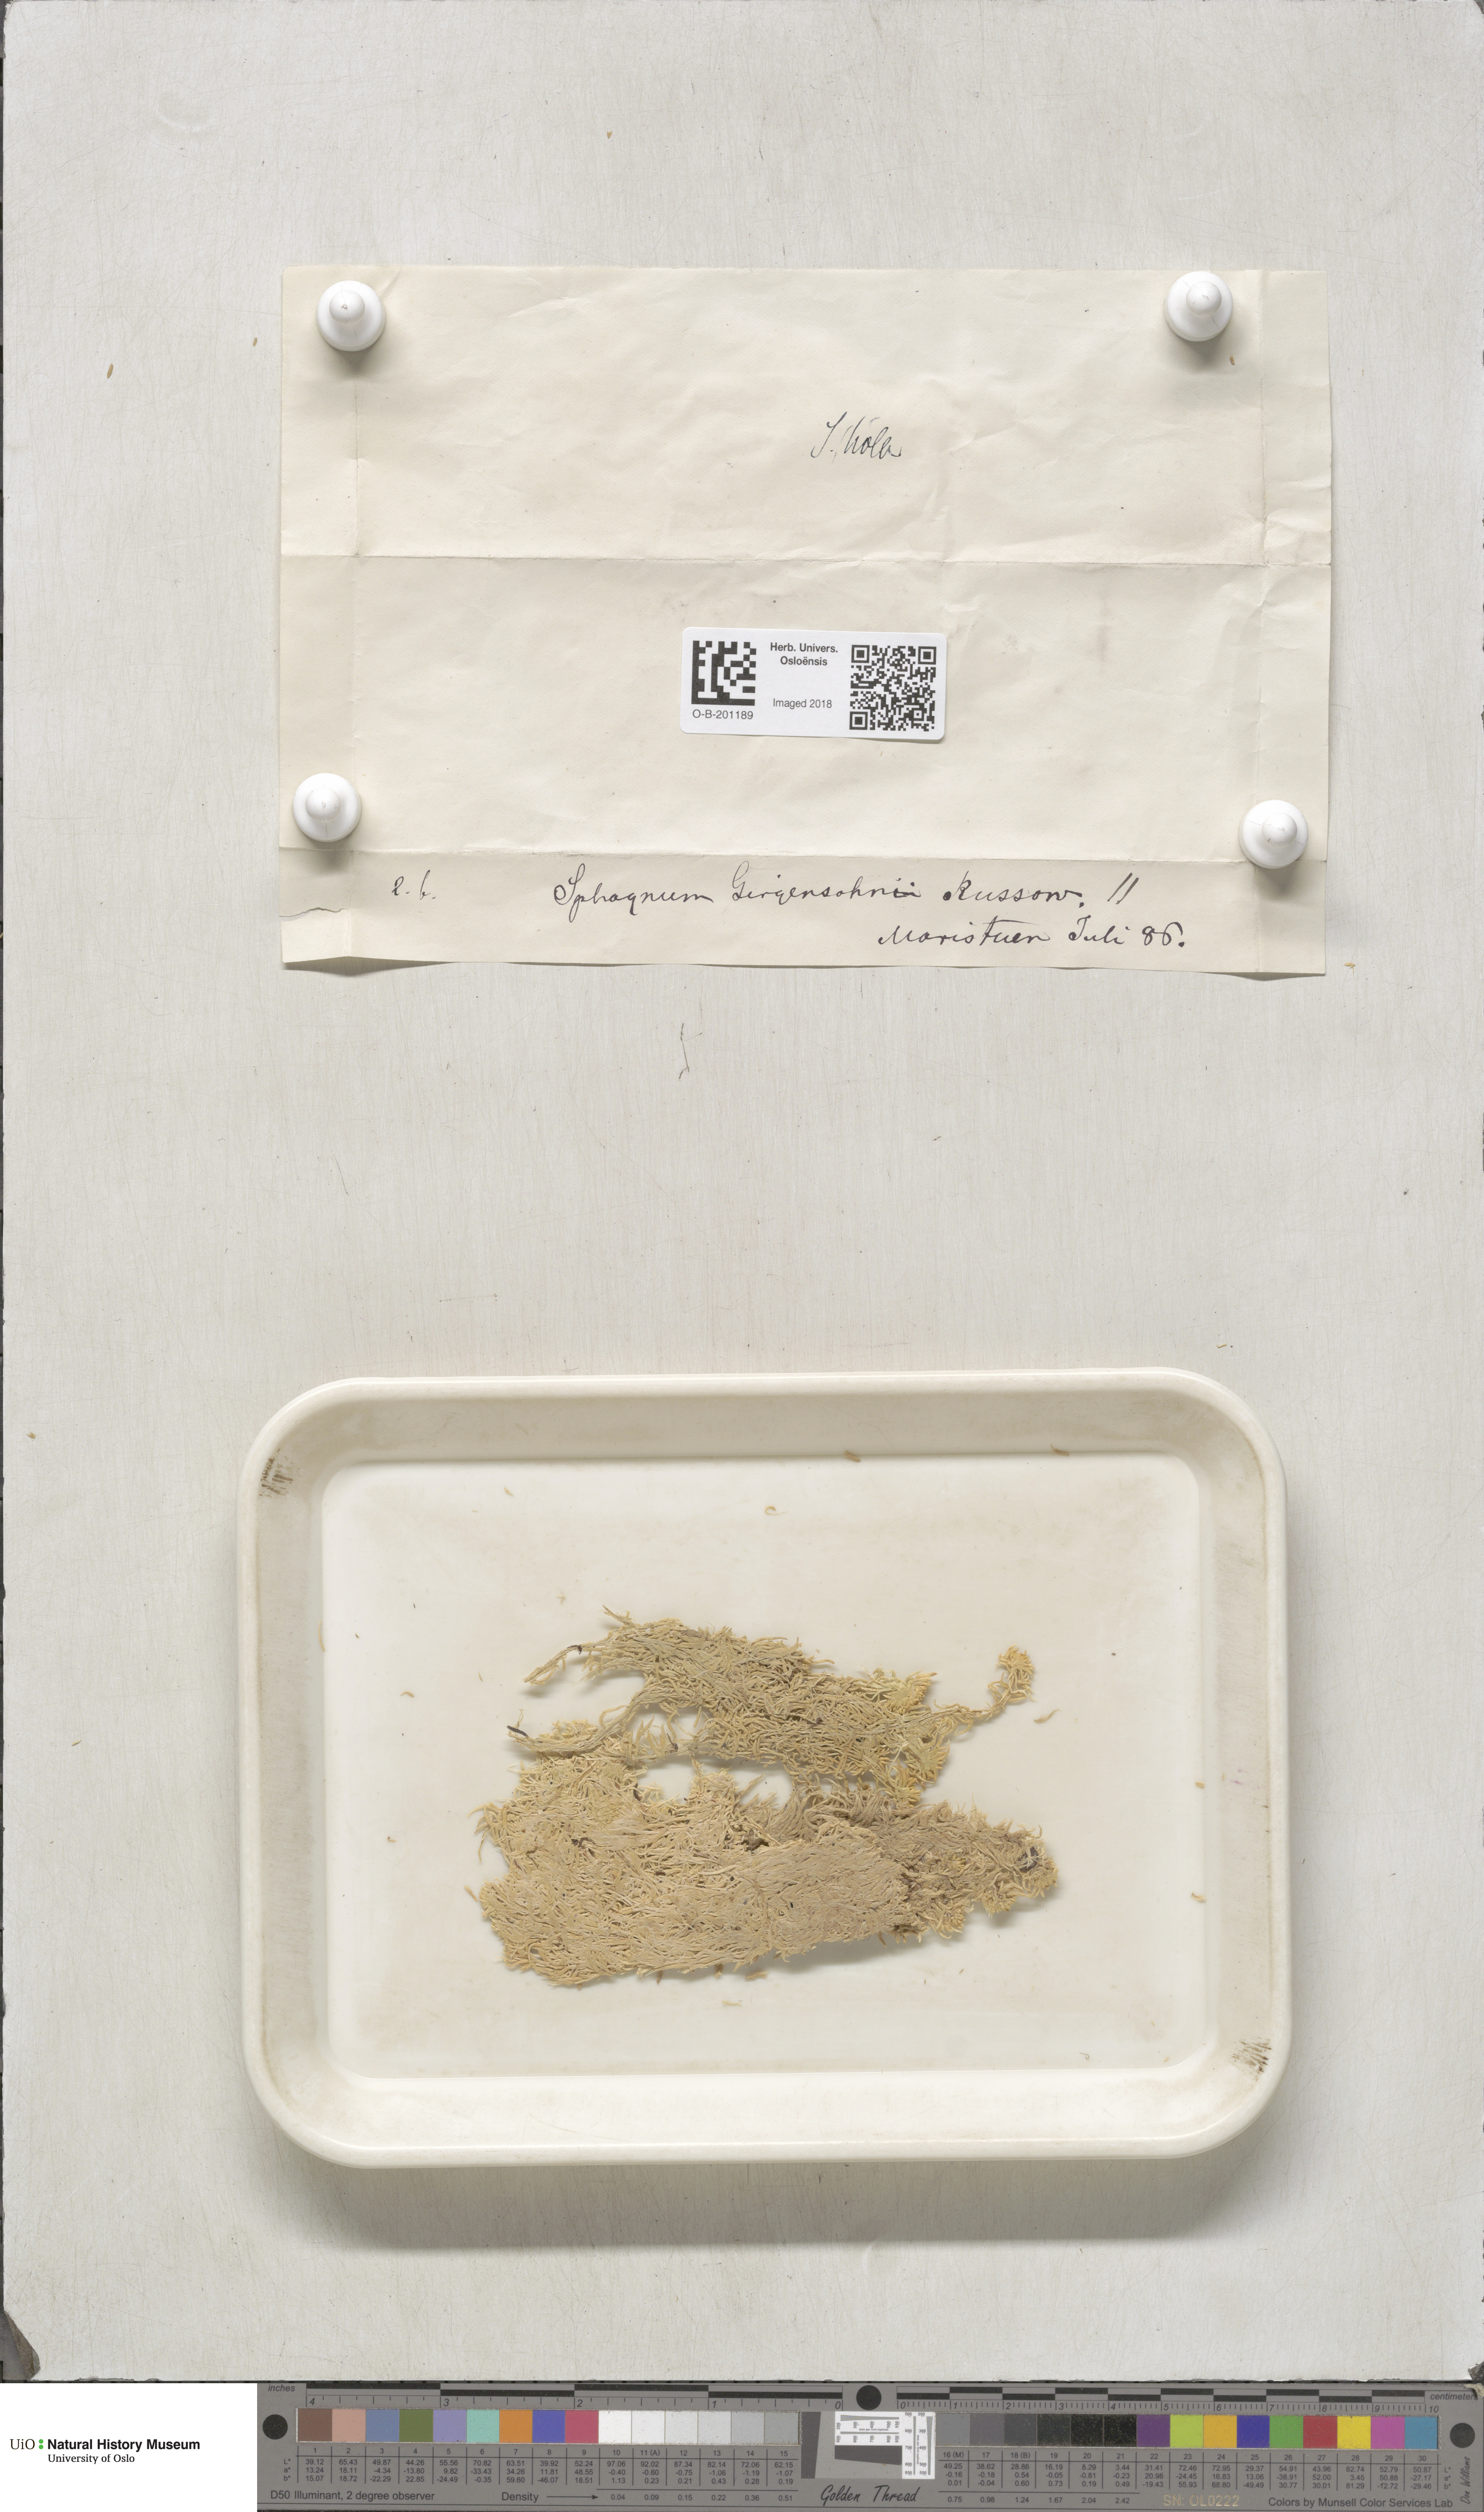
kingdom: Plantae
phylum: Bryophyta
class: Sphagnopsida
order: Sphagnales
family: Sphagnaceae
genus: Sphagnum
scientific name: Sphagnum girgensohnii
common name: Girgensohn's peat moss
